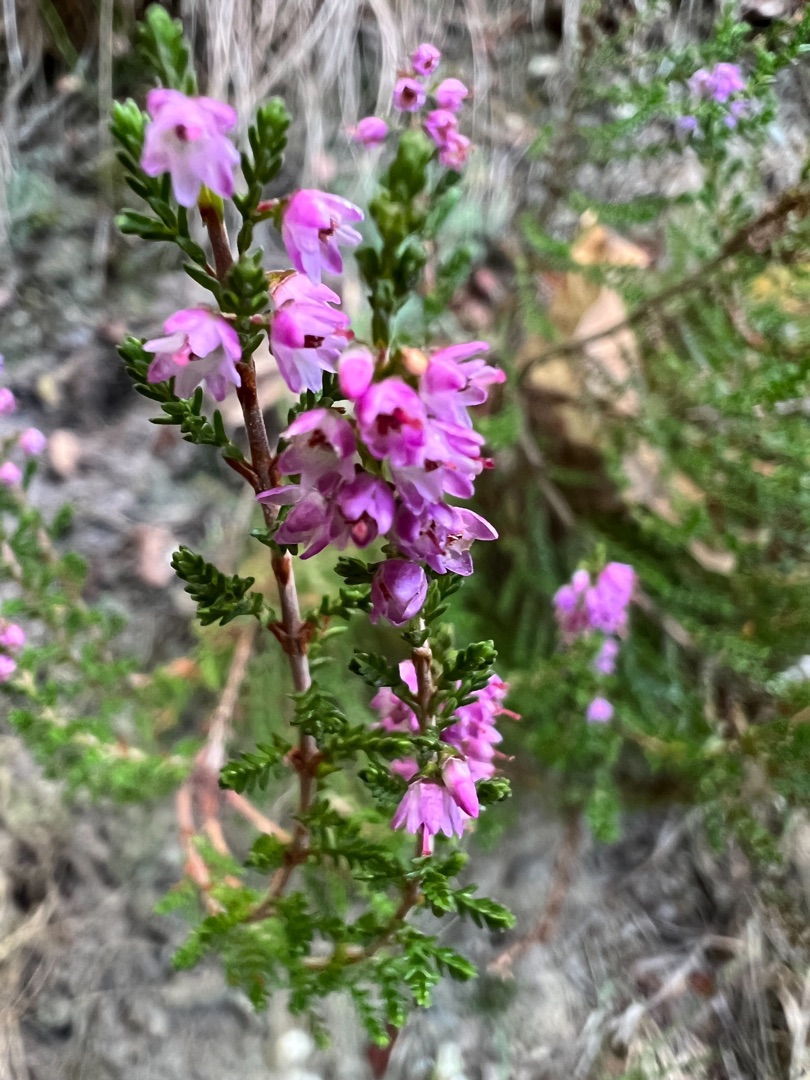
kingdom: Plantae
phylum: Tracheophyta
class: Magnoliopsida
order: Ericales
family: Ericaceae
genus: Calluna
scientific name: Calluna vulgaris
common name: Hedelyng
